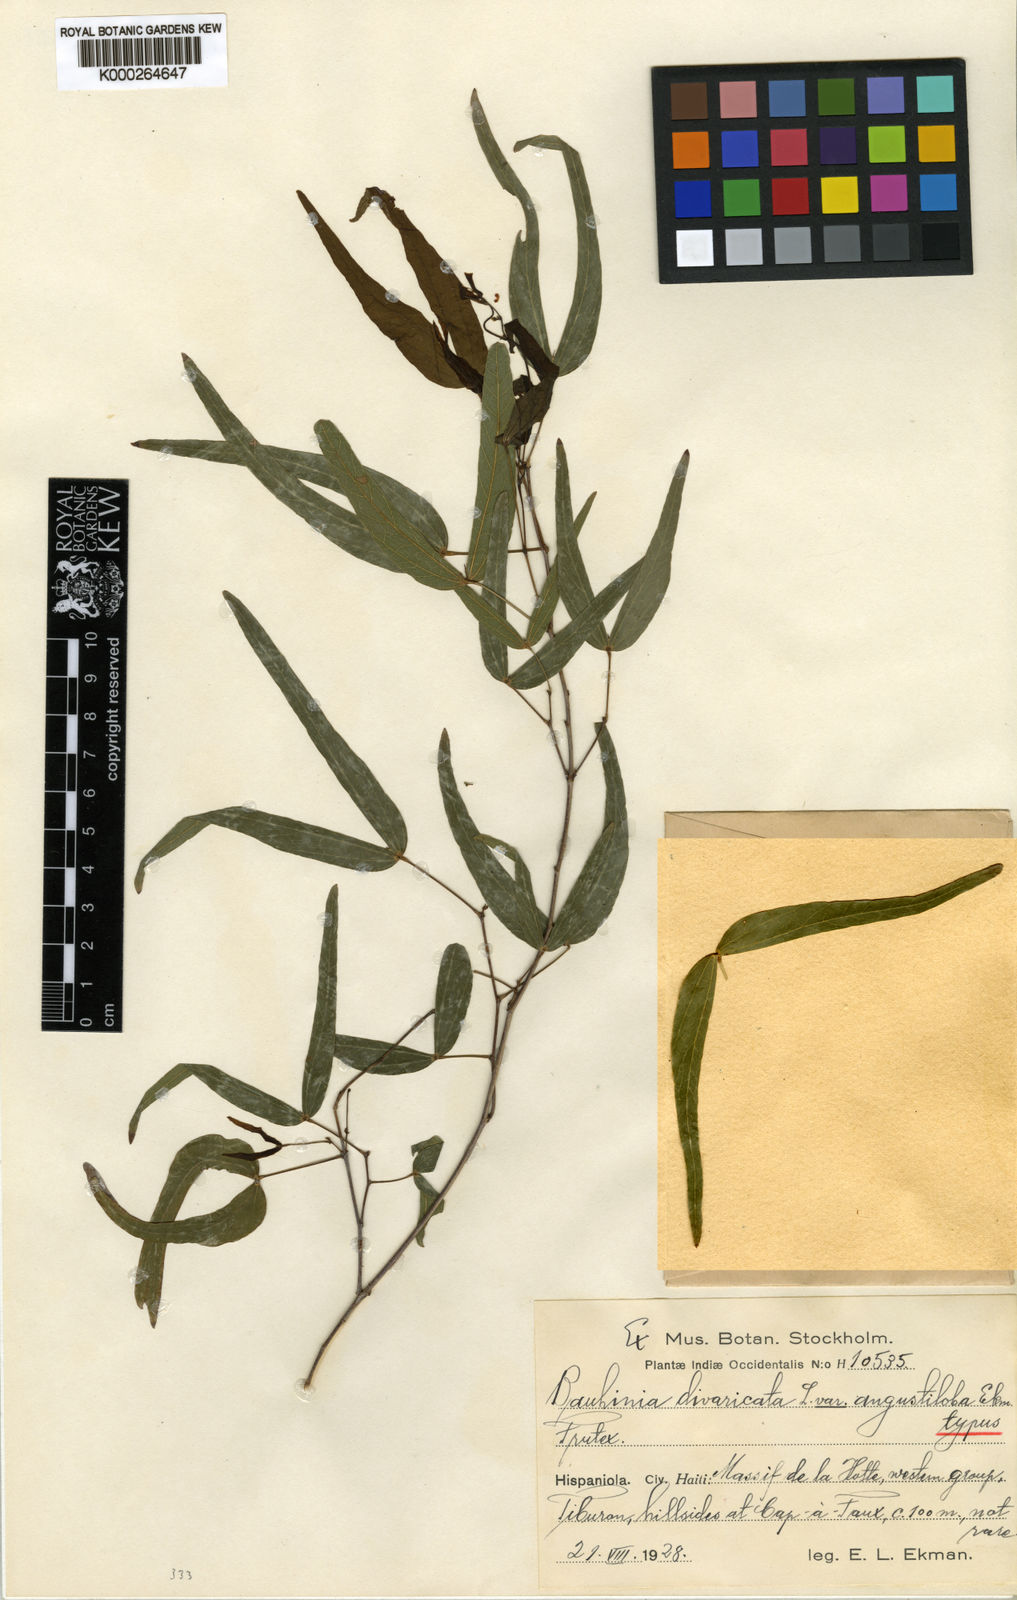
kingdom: Plantae
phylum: Tracheophyta
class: Magnoliopsida
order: Fabales
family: Fabaceae
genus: Bauhinia
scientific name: Bauhinia divaricata
